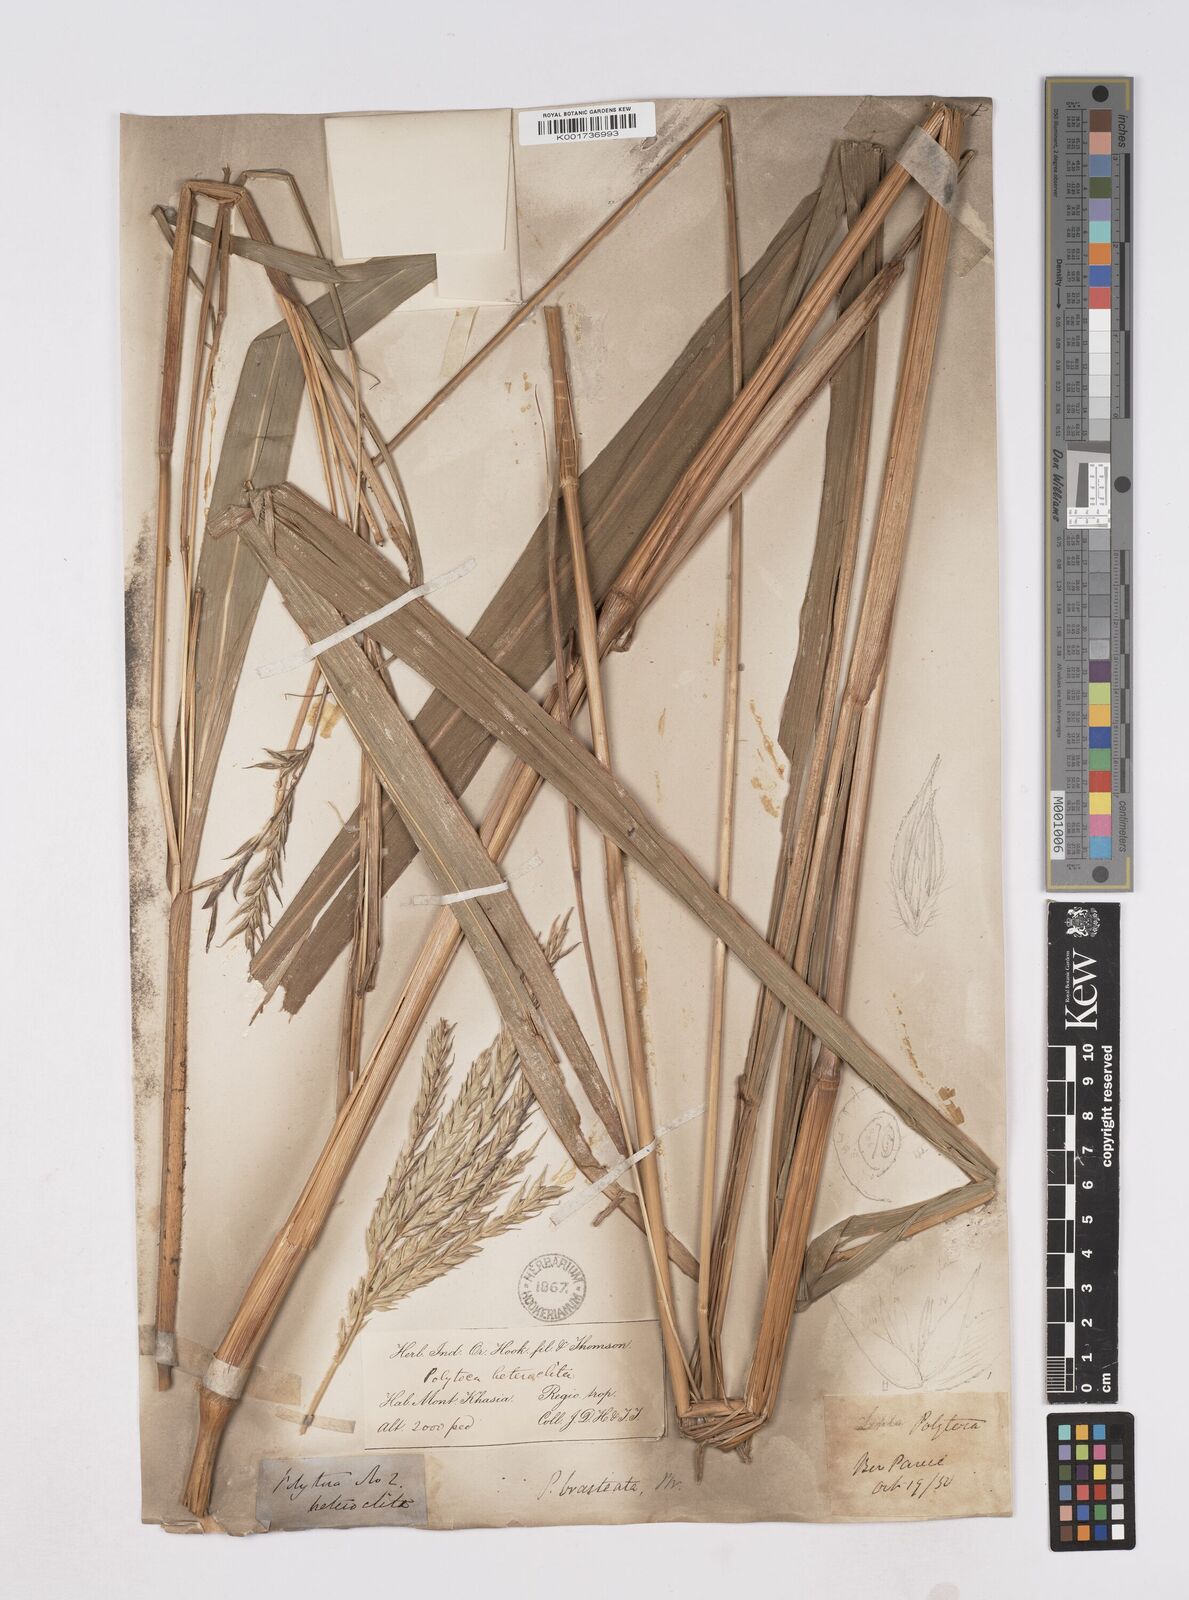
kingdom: Plantae
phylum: Tracheophyta
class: Liliopsida
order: Poales
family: Poaceae
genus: Polytoca
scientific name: Polytoca digitata
